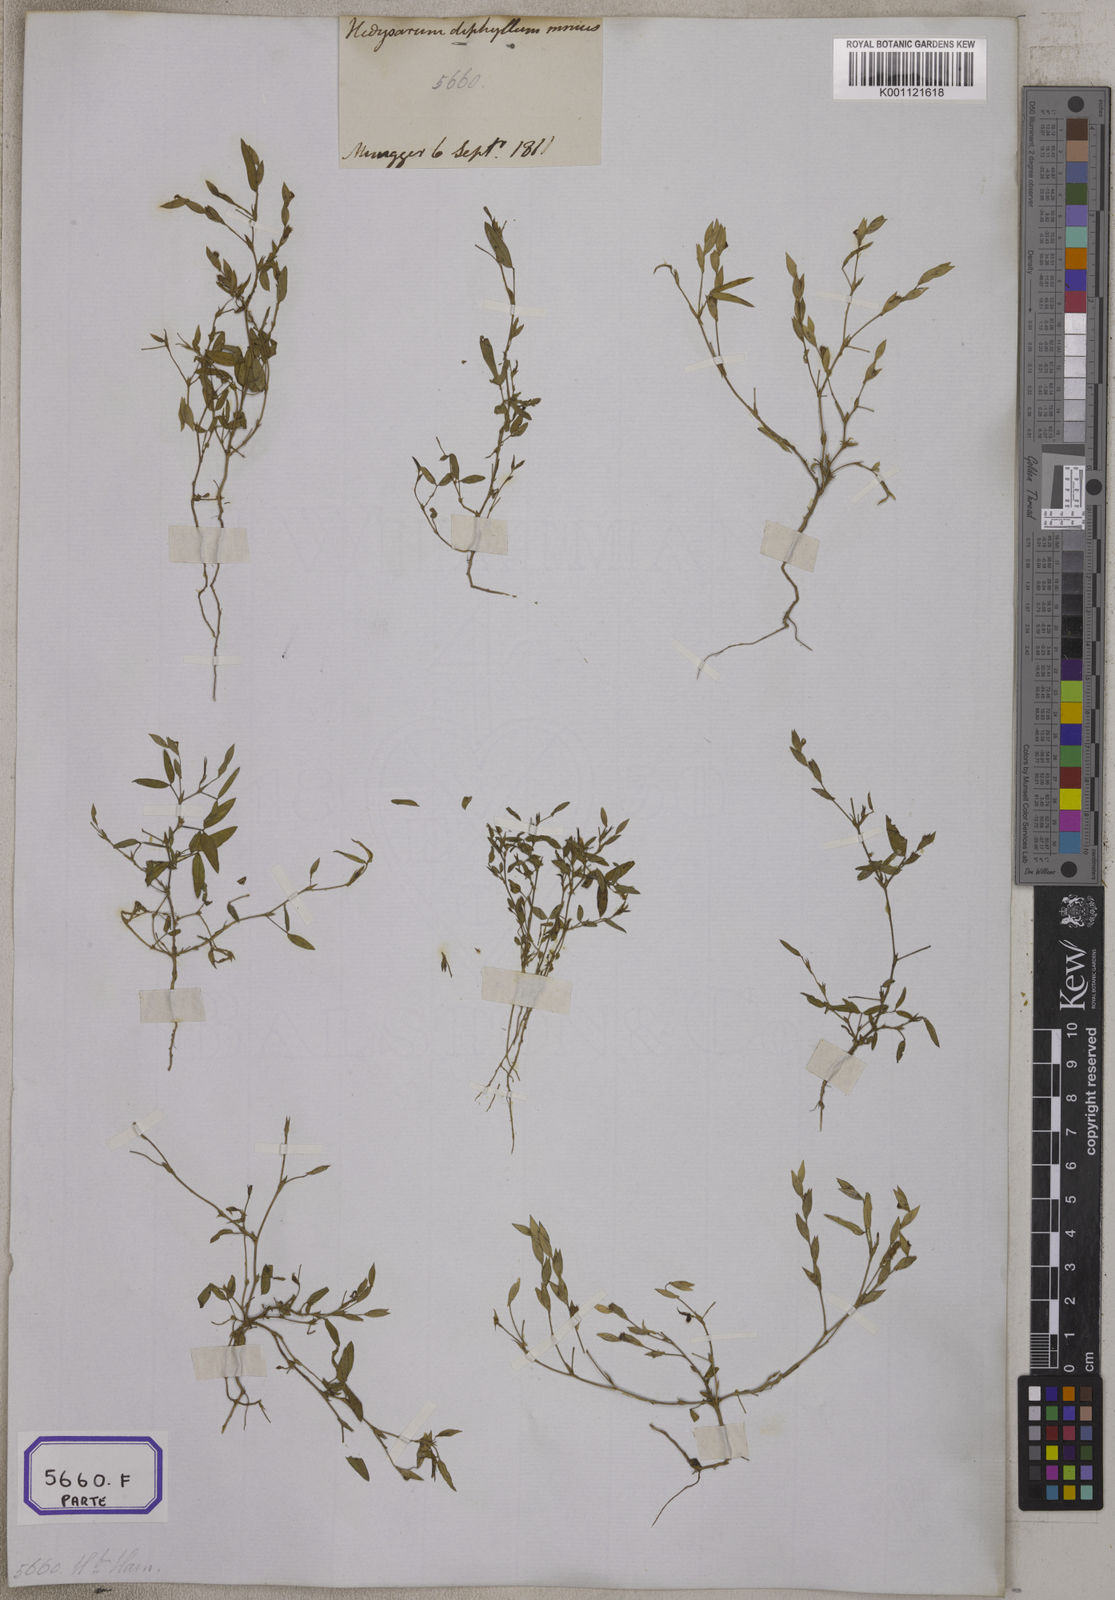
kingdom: Plantae
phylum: Tracheophyta
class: Magnoliopsida
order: Fabales
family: Fabaceae
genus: Zornia
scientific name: Zornia gibbosa
